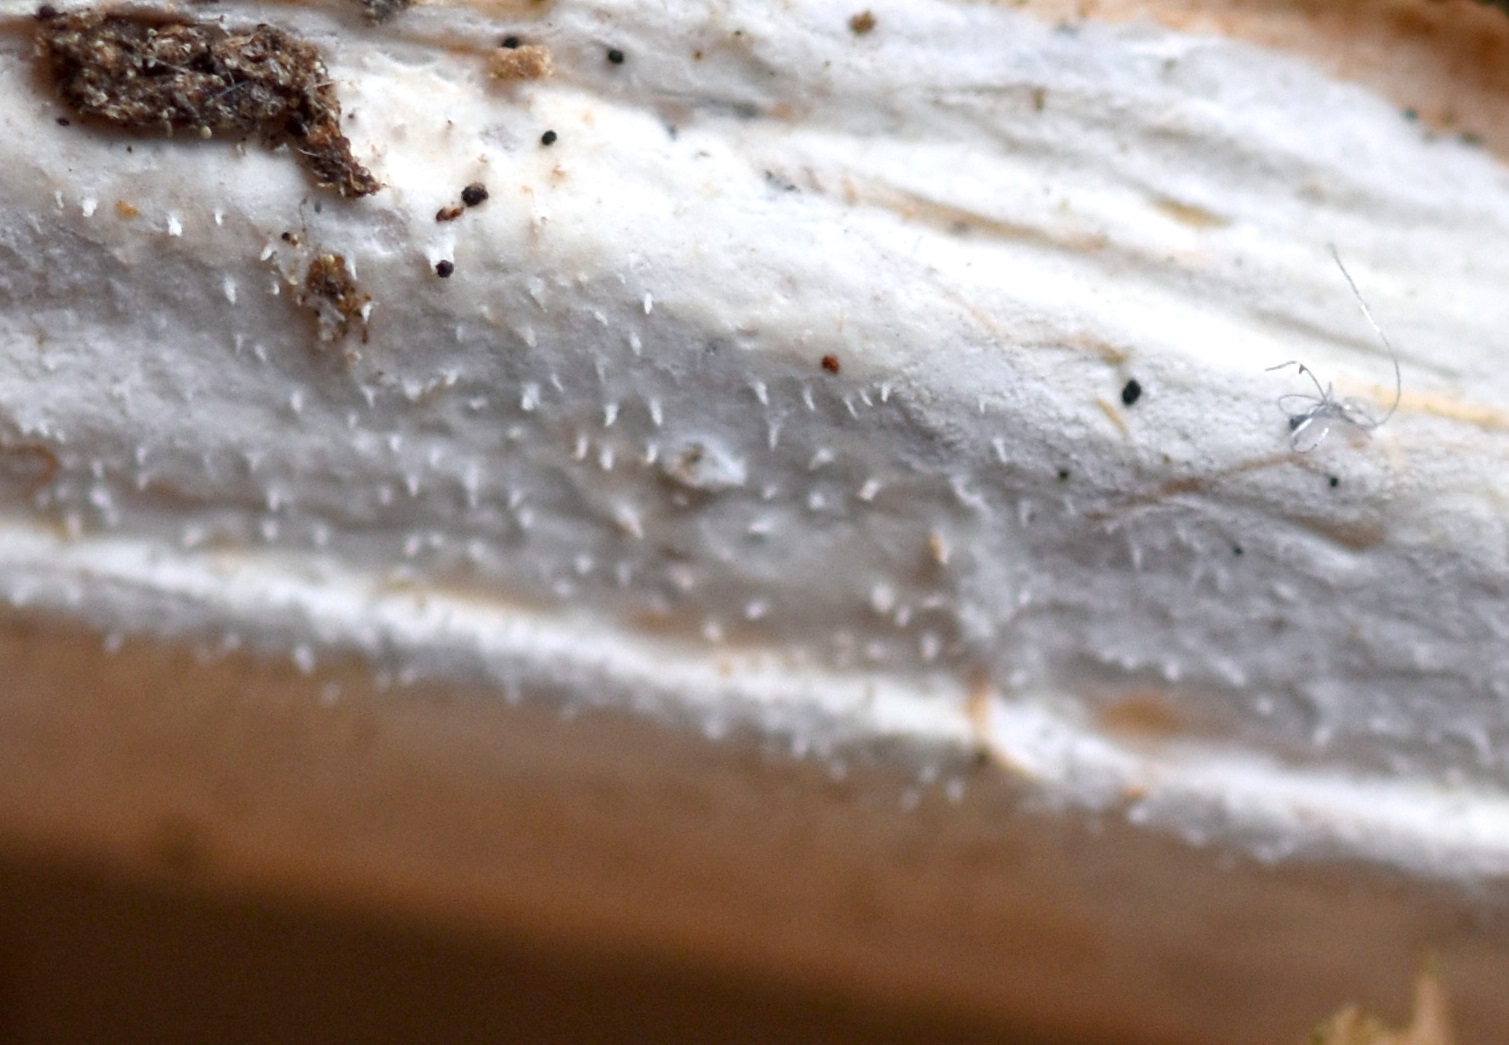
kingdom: Fungi
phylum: Basidiomycota
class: Agaricomycetes
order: Polyporales
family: Polyporaceae
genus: Epithele
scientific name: Epithele typhae
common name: starpig
